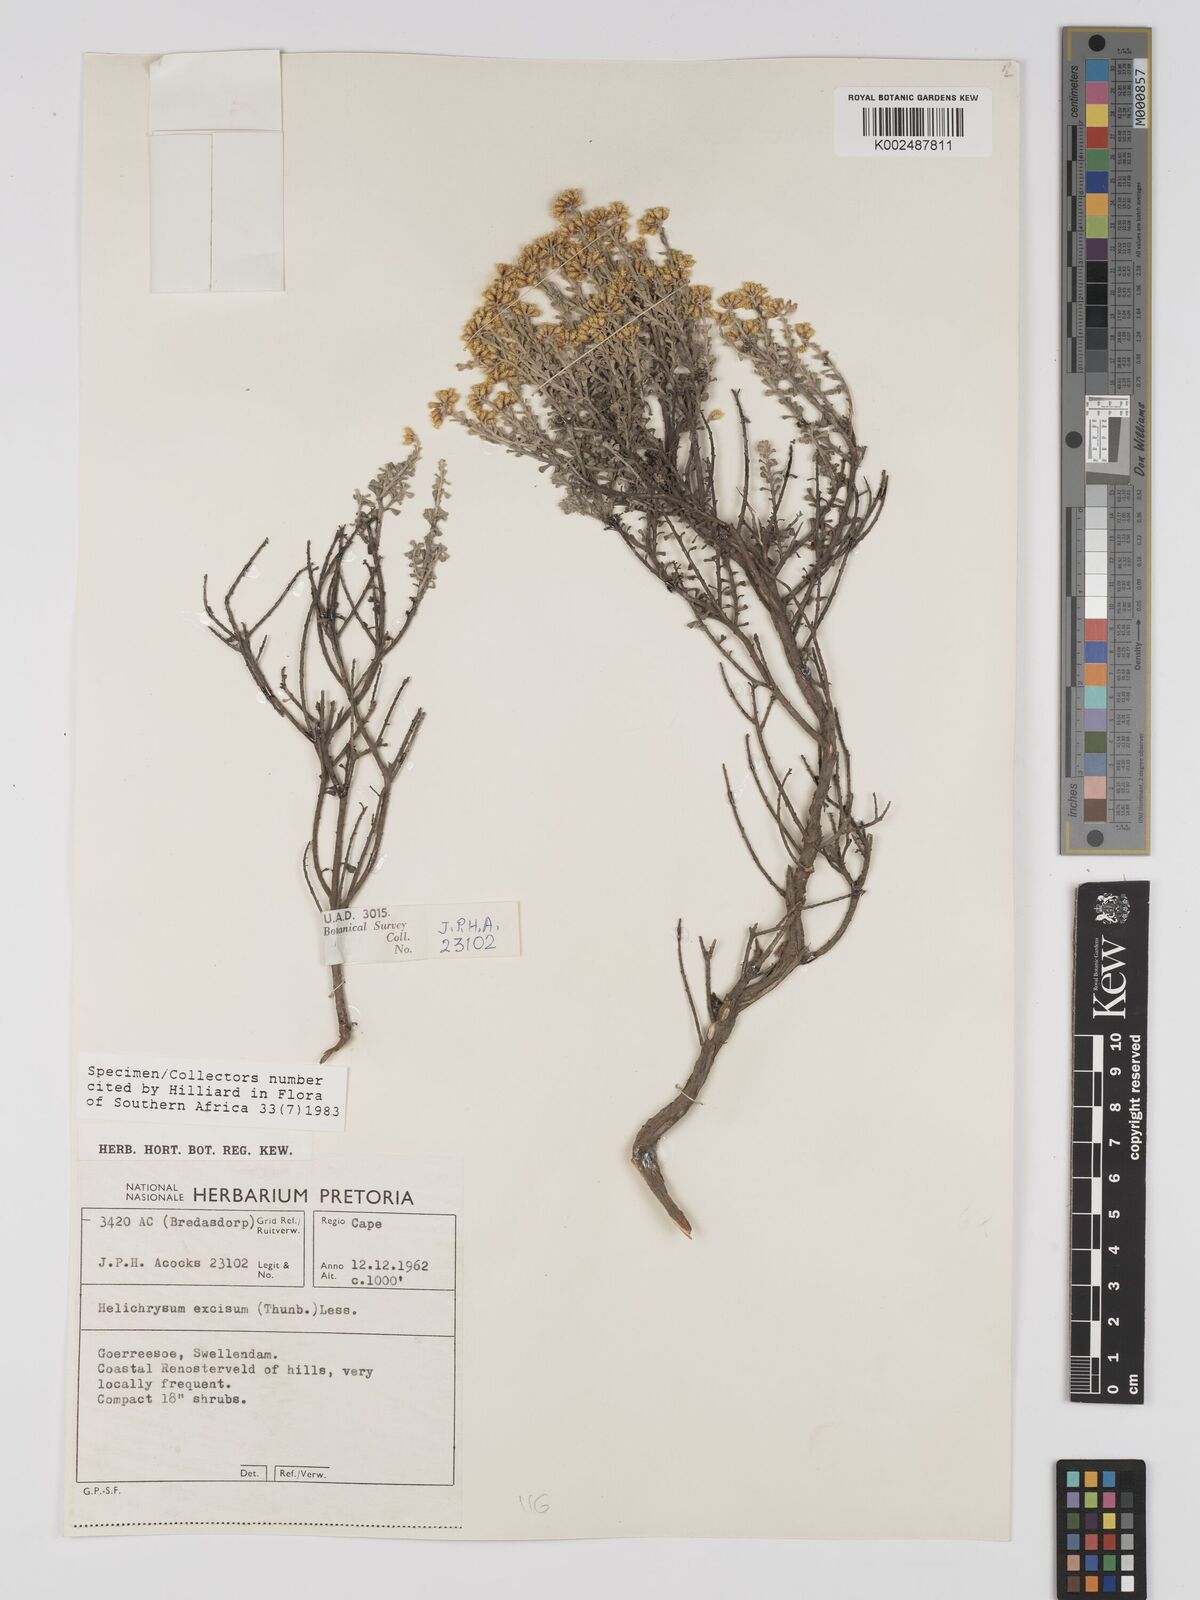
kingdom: Plantae
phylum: Tracheophyta
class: Magnoliopsida
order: Asterales
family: Asteraceae
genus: Helichrysum
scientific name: Helichrysum excisum
